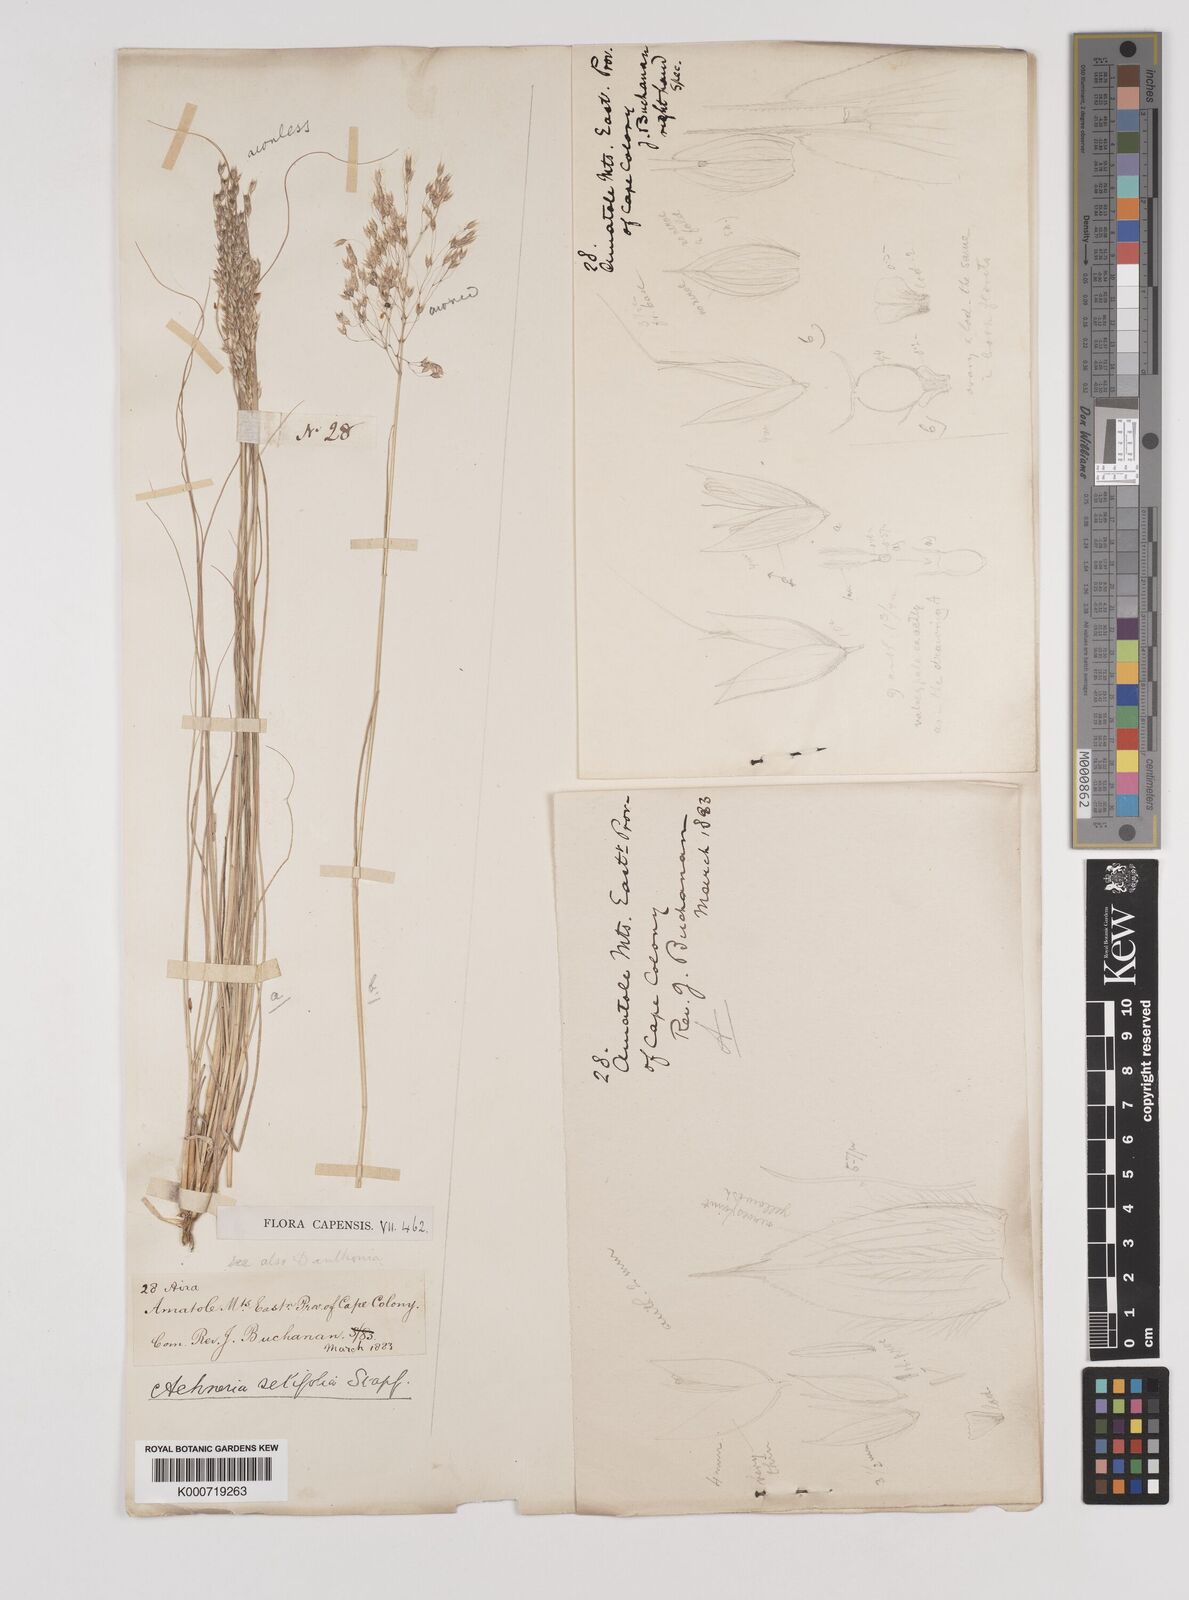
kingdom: Plantae
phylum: Tracheophyta
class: Liliopsida
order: Poales
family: Poaceae
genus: Pentameris
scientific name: Pentameris setifolia
